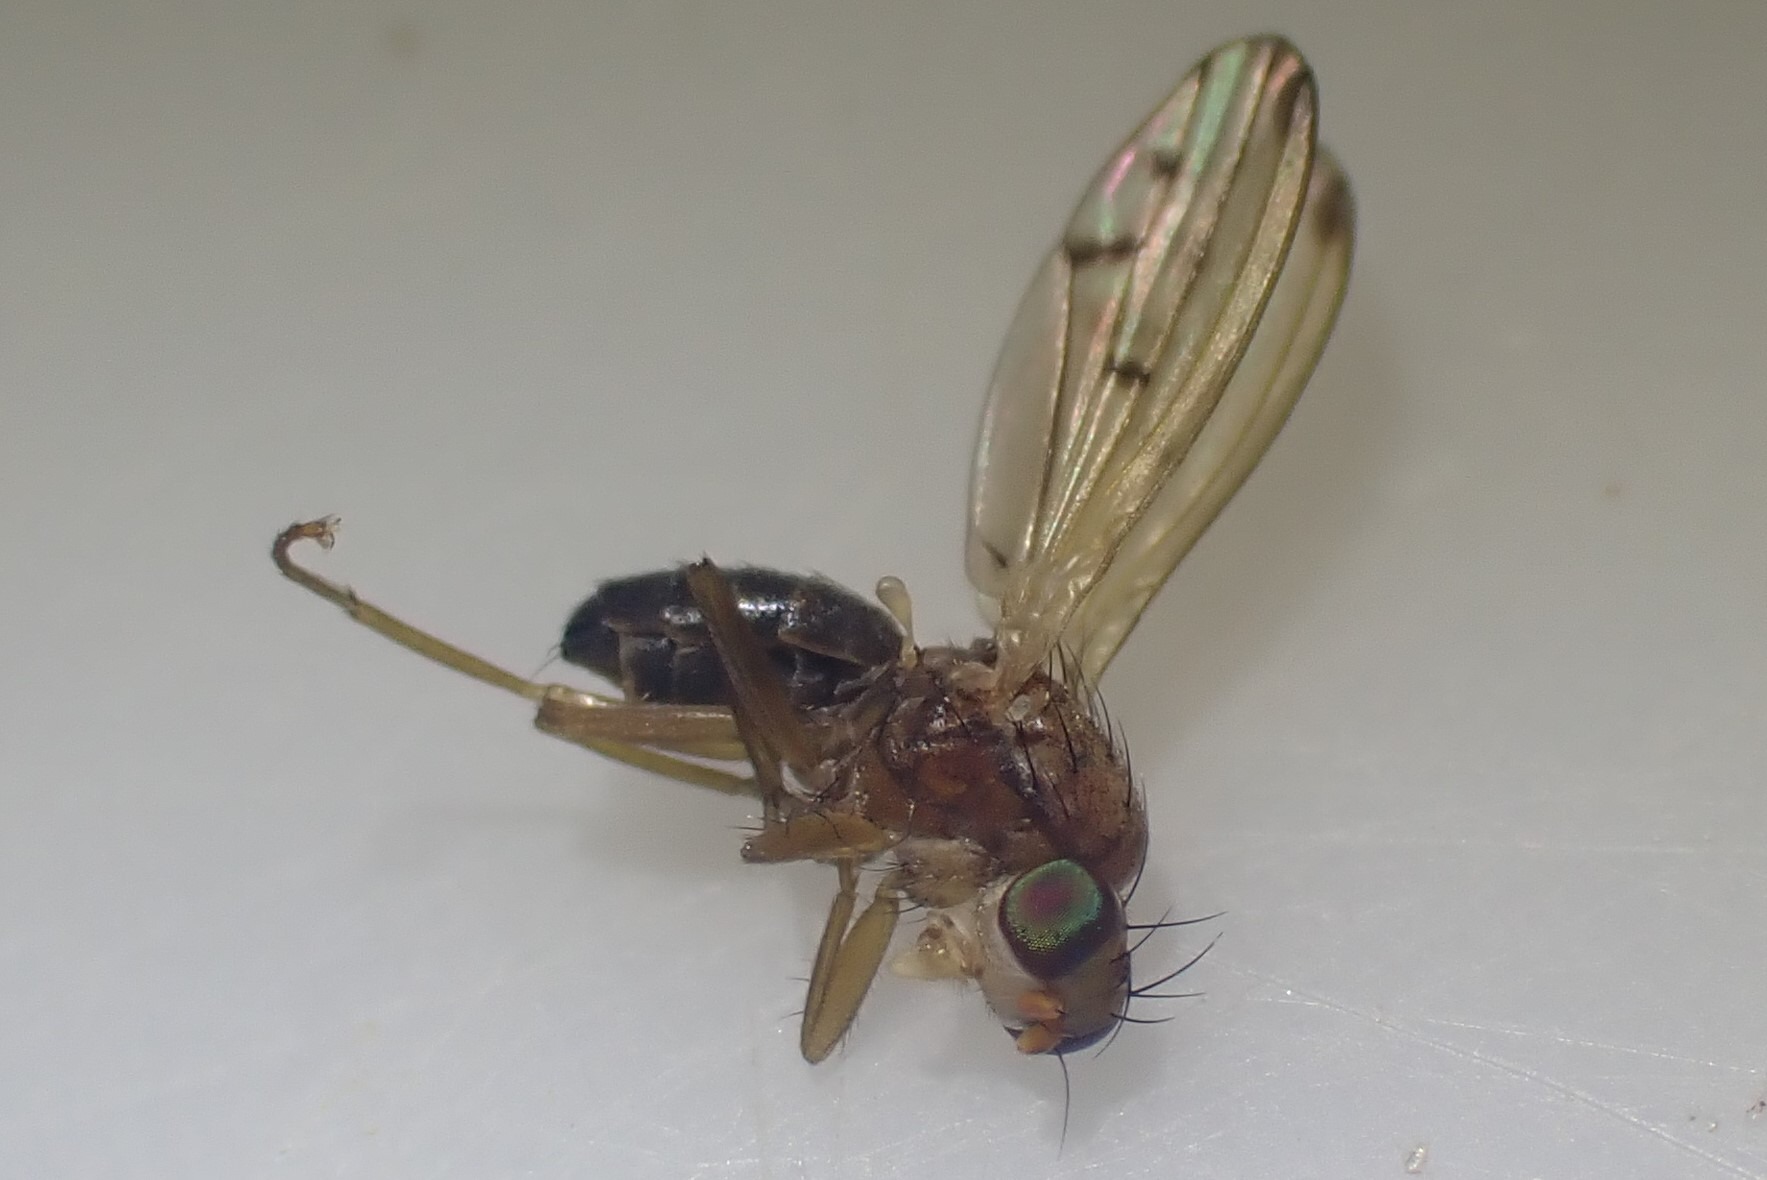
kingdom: Animalia
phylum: Arthropoda
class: Insecta
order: Diptera
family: Opomyzidae
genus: Opomyza
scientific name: Opomyza florum
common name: Gul græsflue
